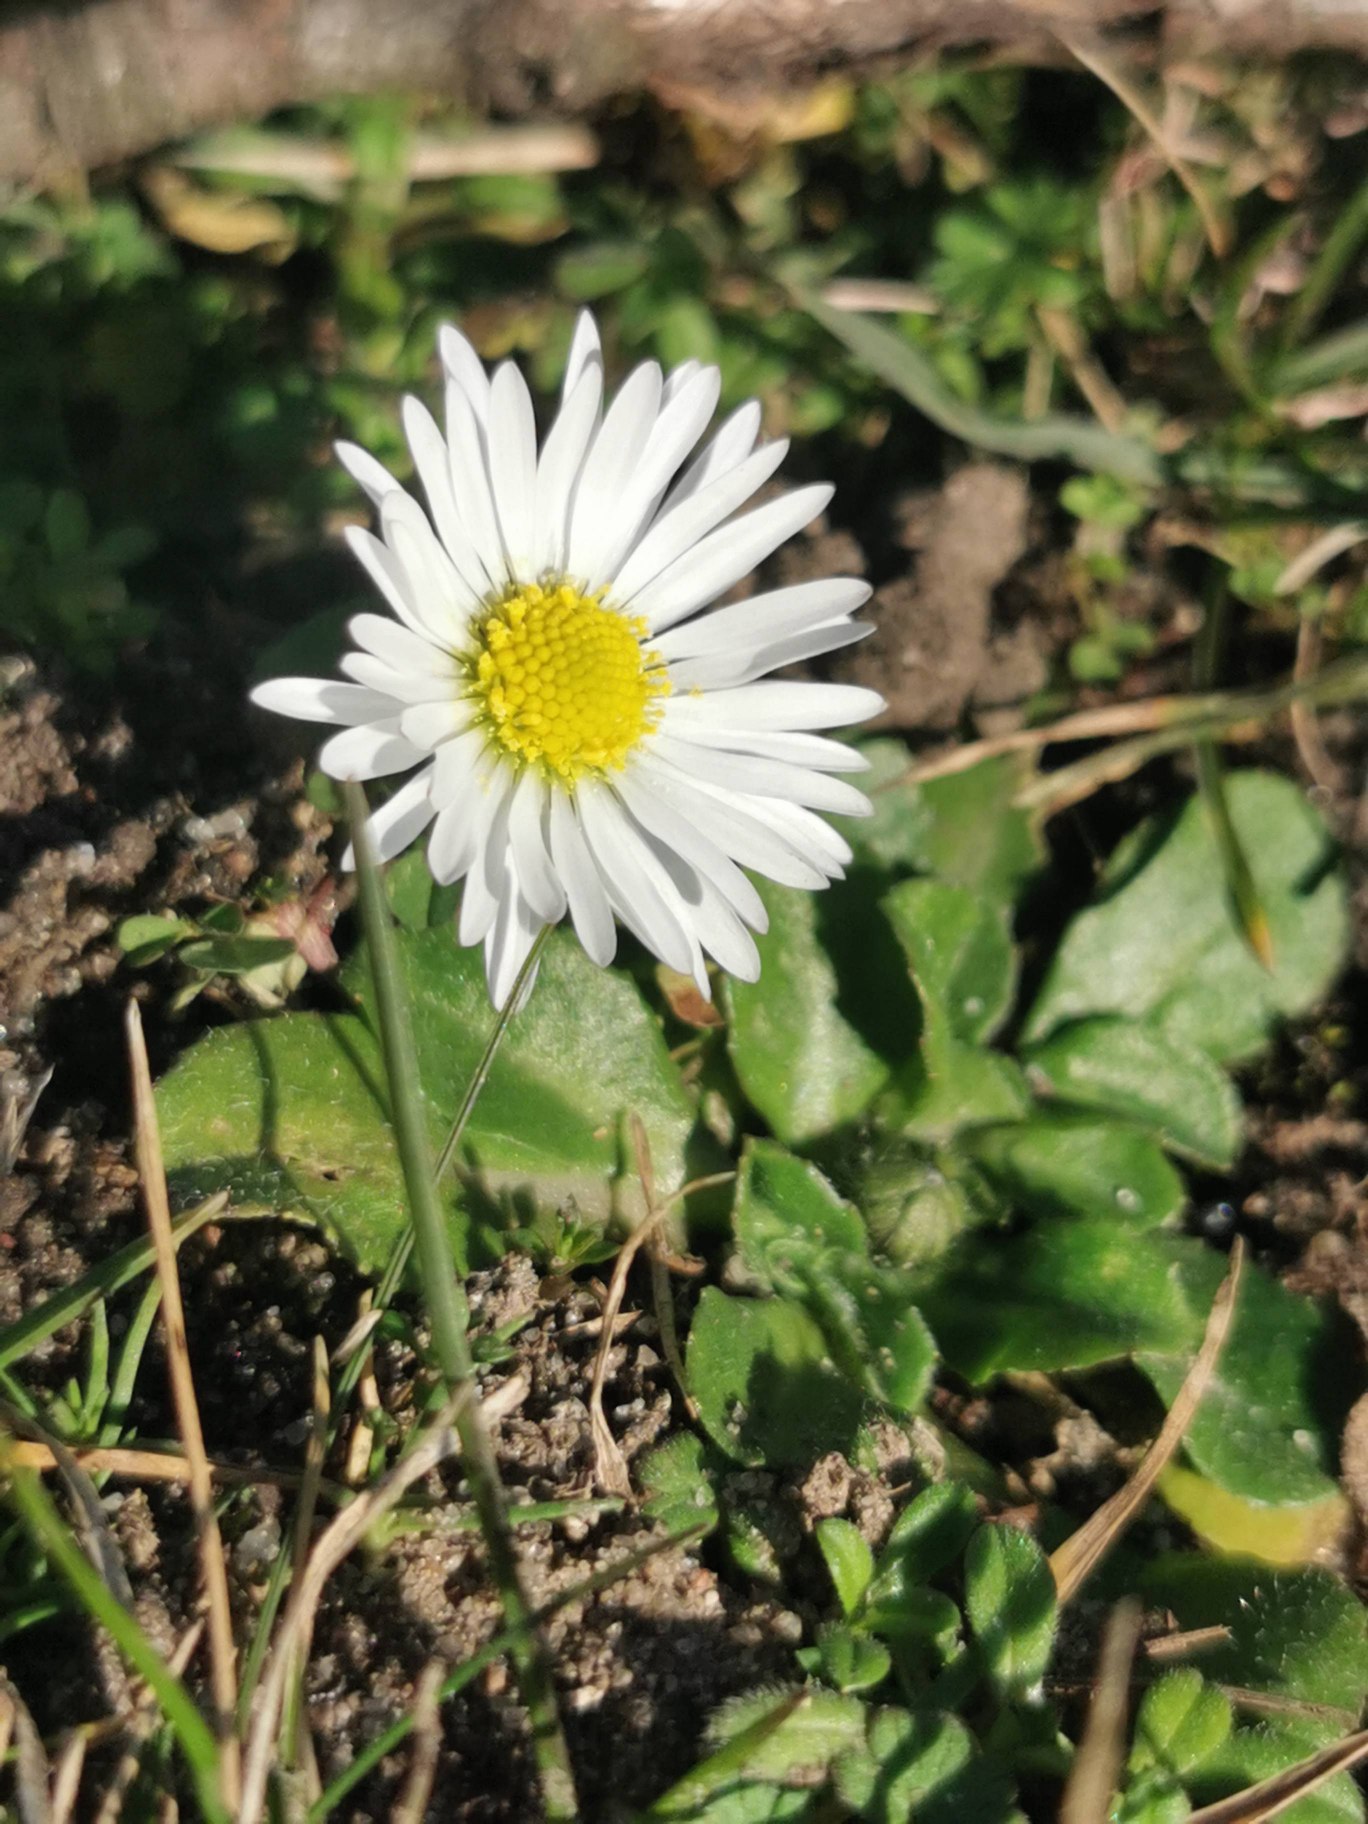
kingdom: Plantae
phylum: Tracheophyta
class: Magnoliopsida
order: Asterales
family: Asteraceae
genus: Bellis
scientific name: Bellis perennis
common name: Tusindfryd
